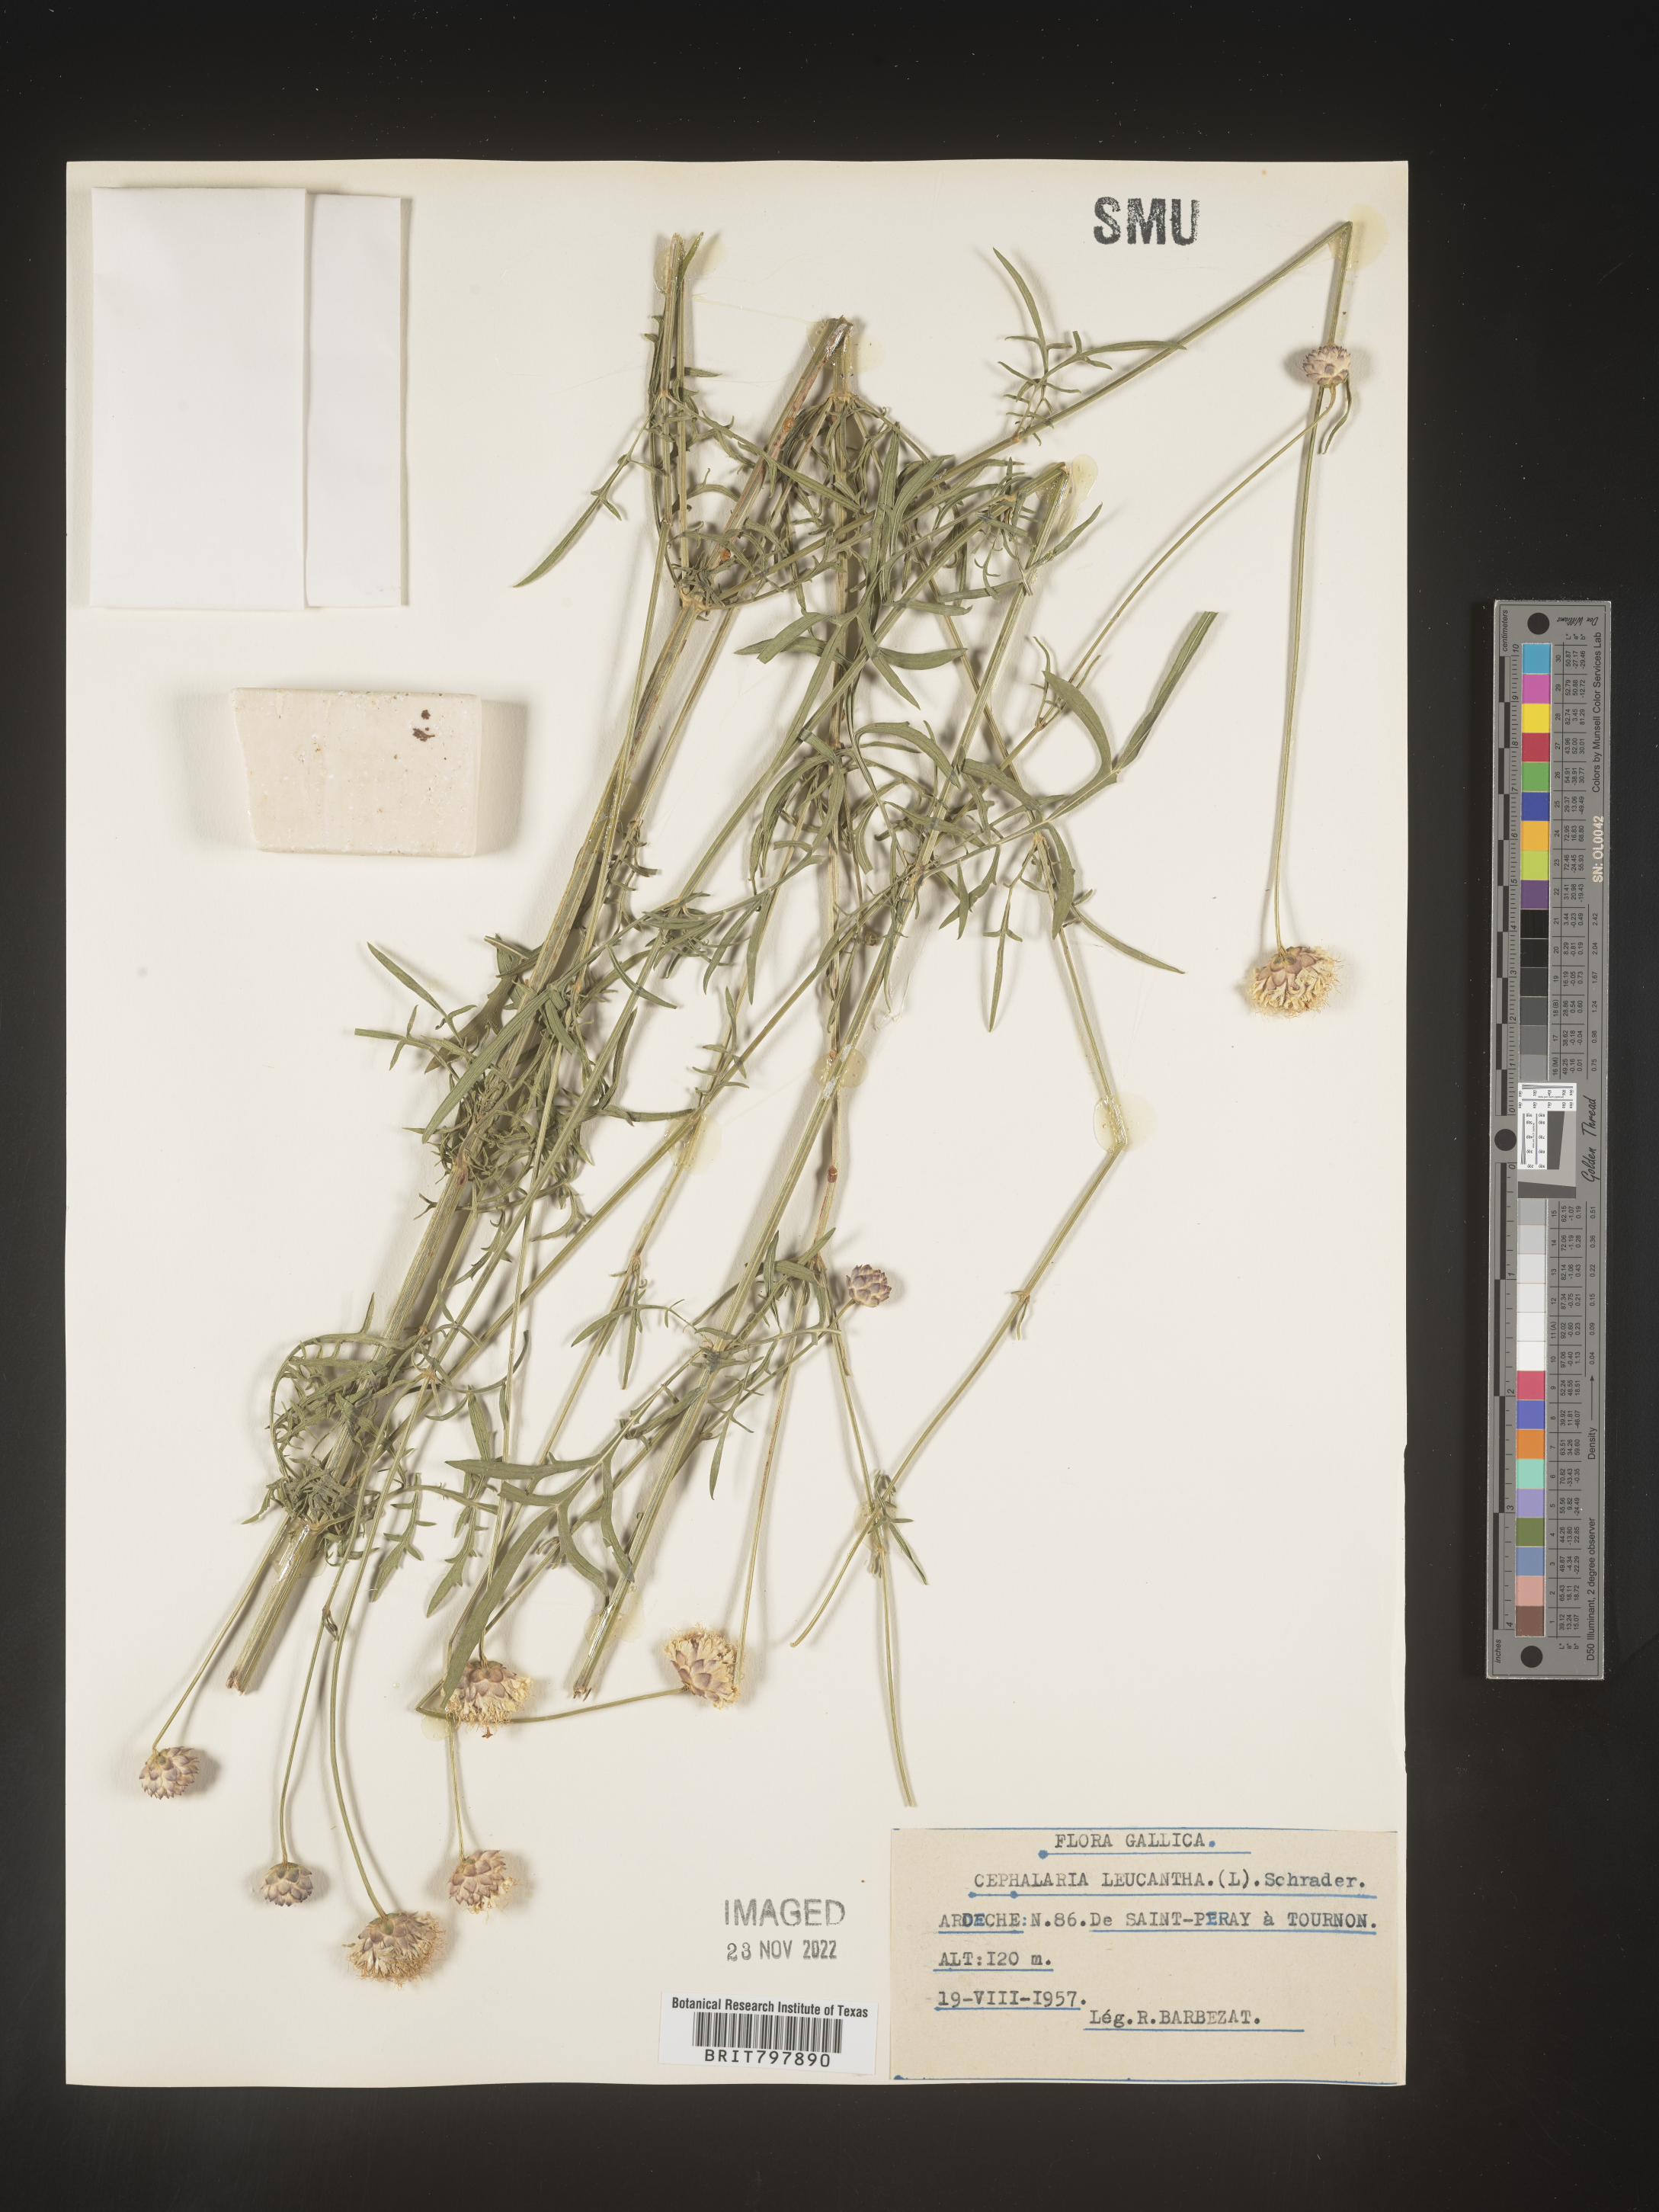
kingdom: Plantae
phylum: Tracheophyta
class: Magnoliopsida
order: Dipsacales
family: Caprifoliaceae
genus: Cephalaria
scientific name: Cephalaria
